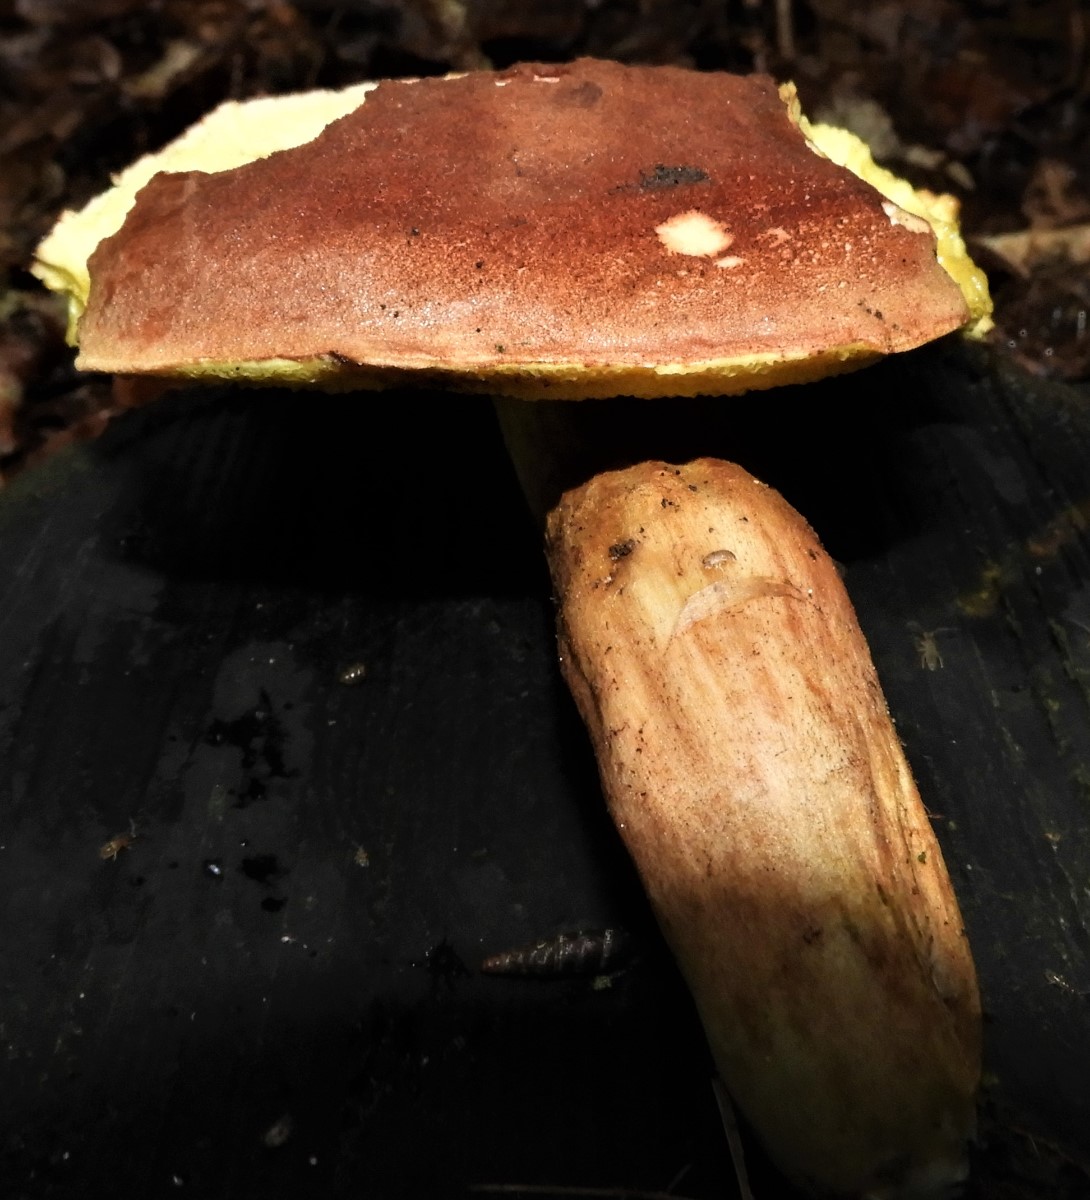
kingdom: Fungi
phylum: Basidiomycota
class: Agaricomycetes
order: Boletales
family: Boletaceae
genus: Xerocomellus
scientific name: Xerocomellus chrysenteron
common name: rødsprukken rørhat
